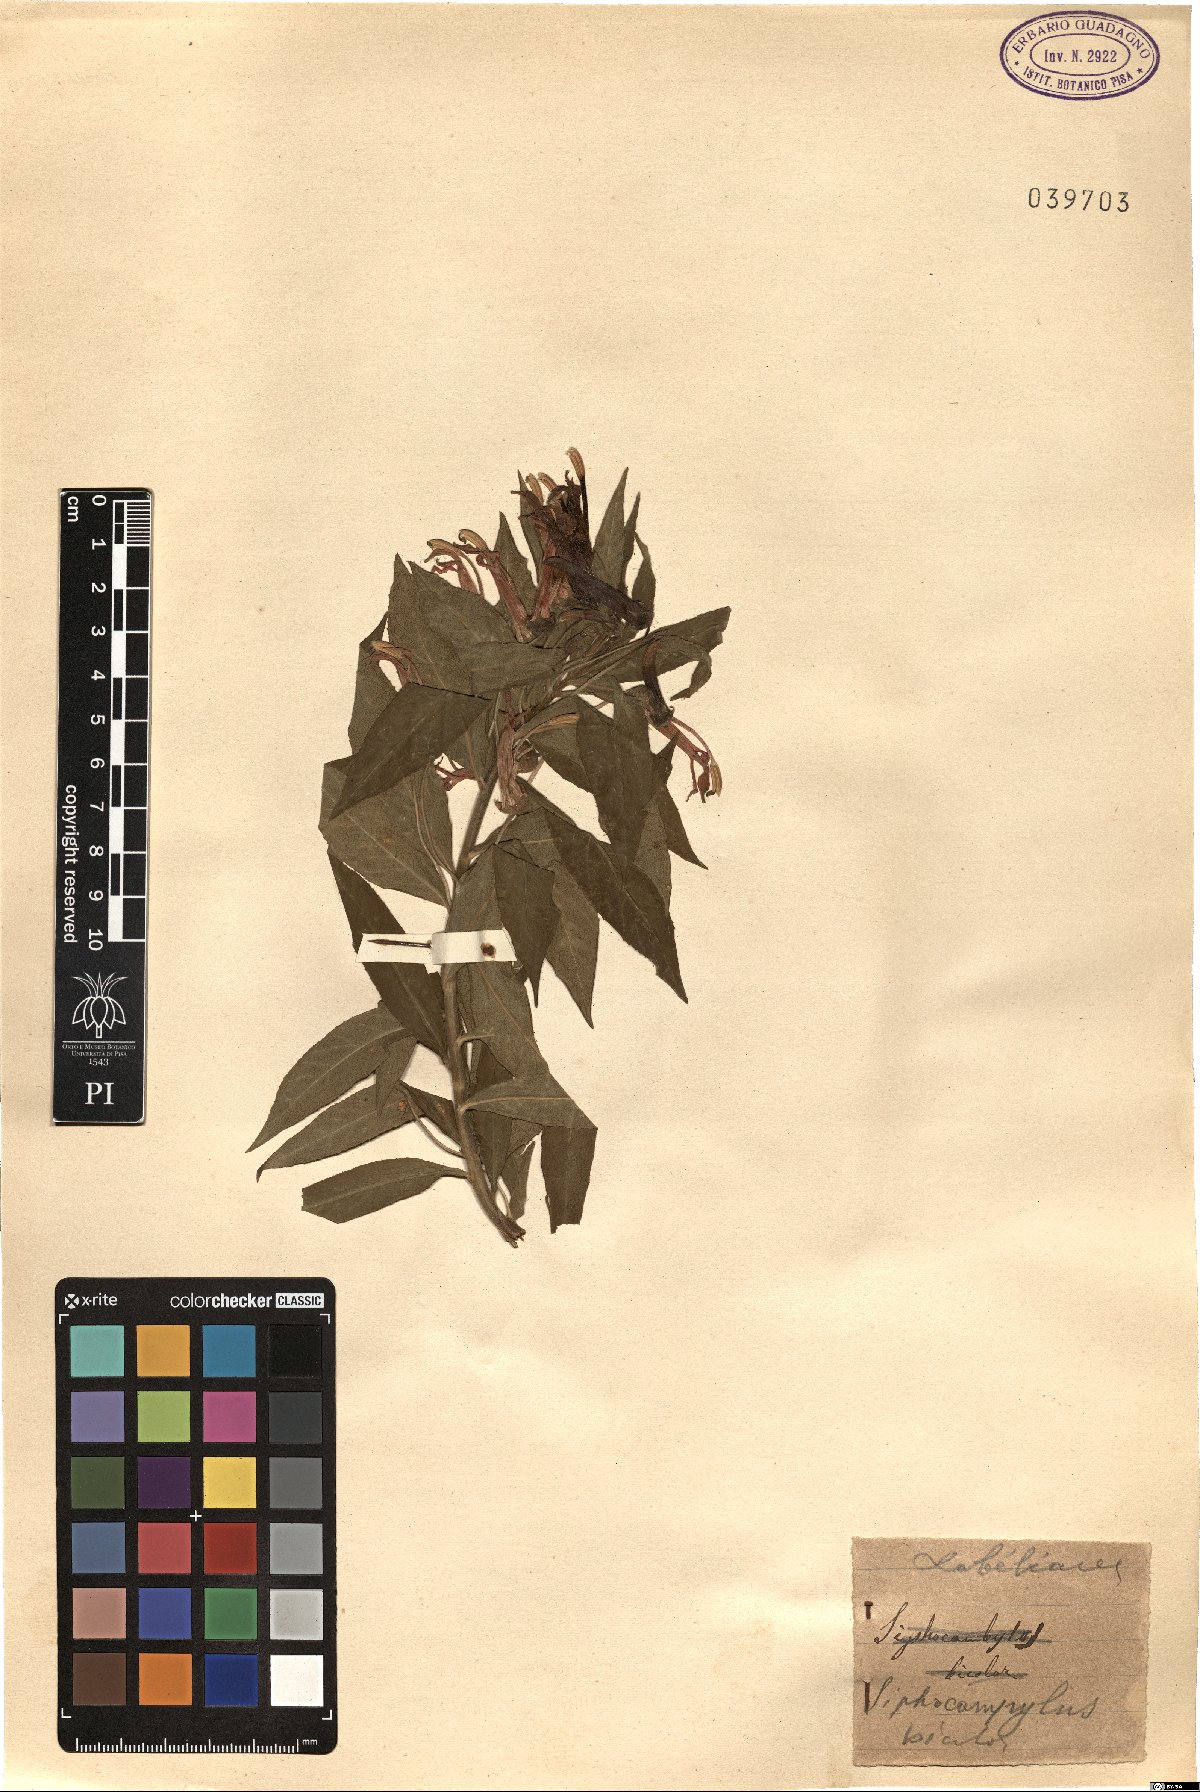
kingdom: Plantae
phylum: Tracheophyta
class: Magnoliopsida
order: Asterales
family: Campanulaceae
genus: Siphocampylus
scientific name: Siphocampylus bicolor
